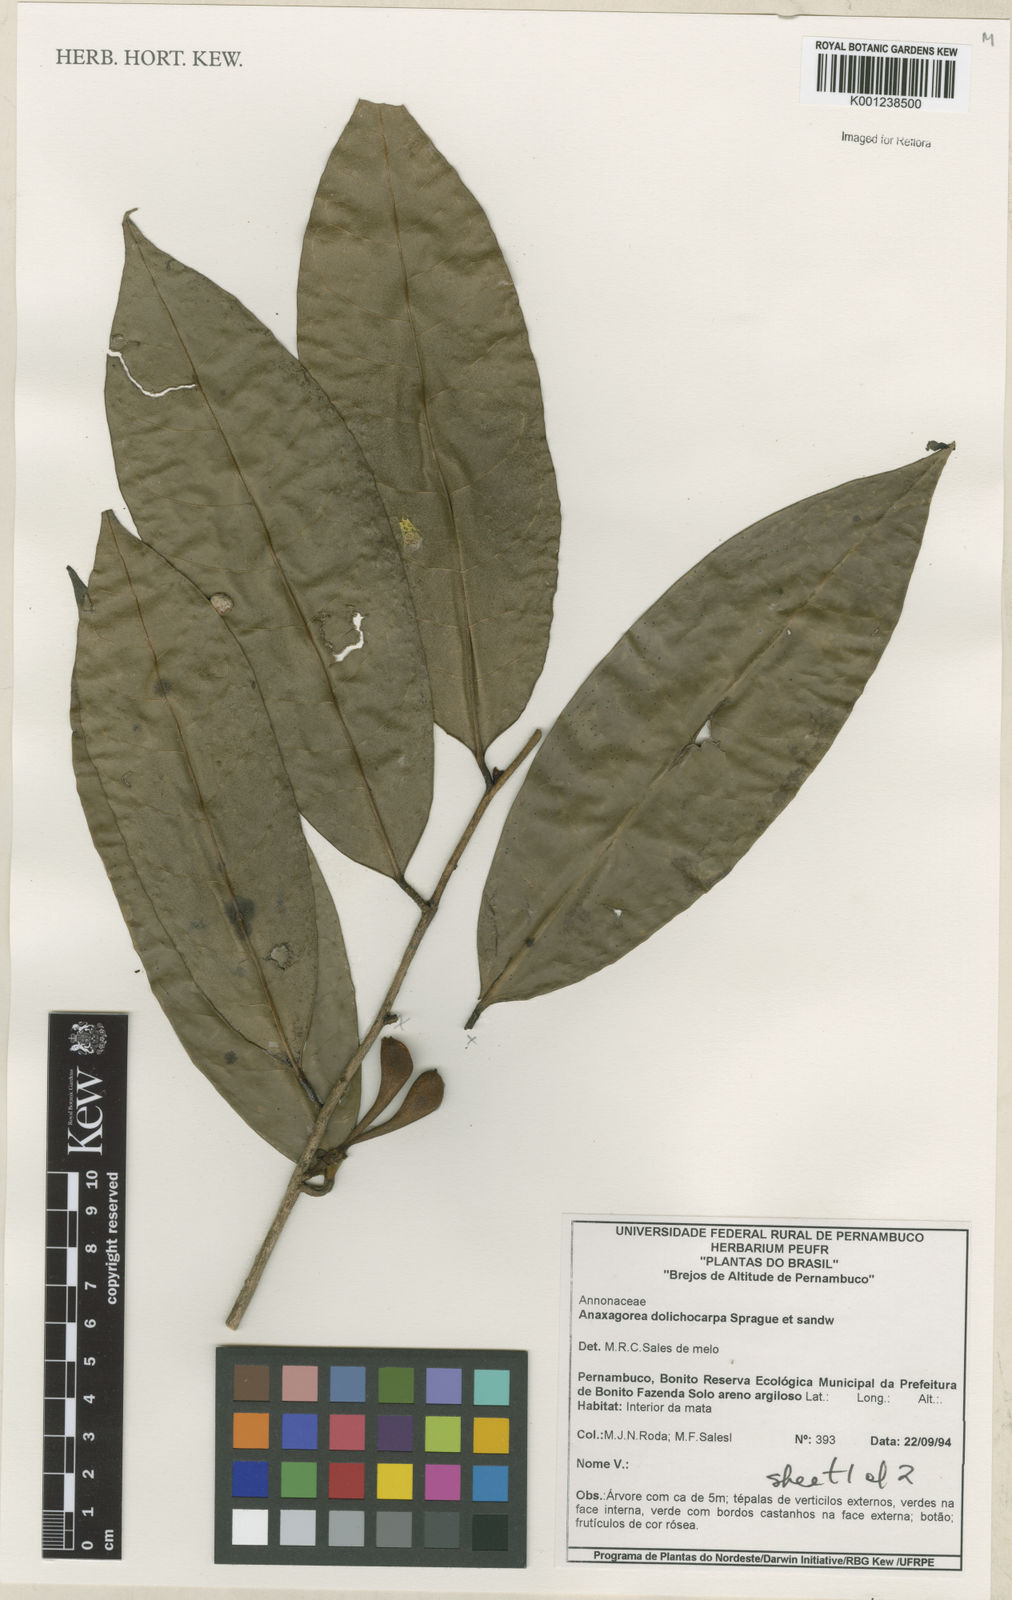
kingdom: Plantae
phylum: Tracheophyta
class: Magnoliopsida
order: Magnoliales
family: Annonaceae
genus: Anaxagorea
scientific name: Anaxagorea dolichocarpa
